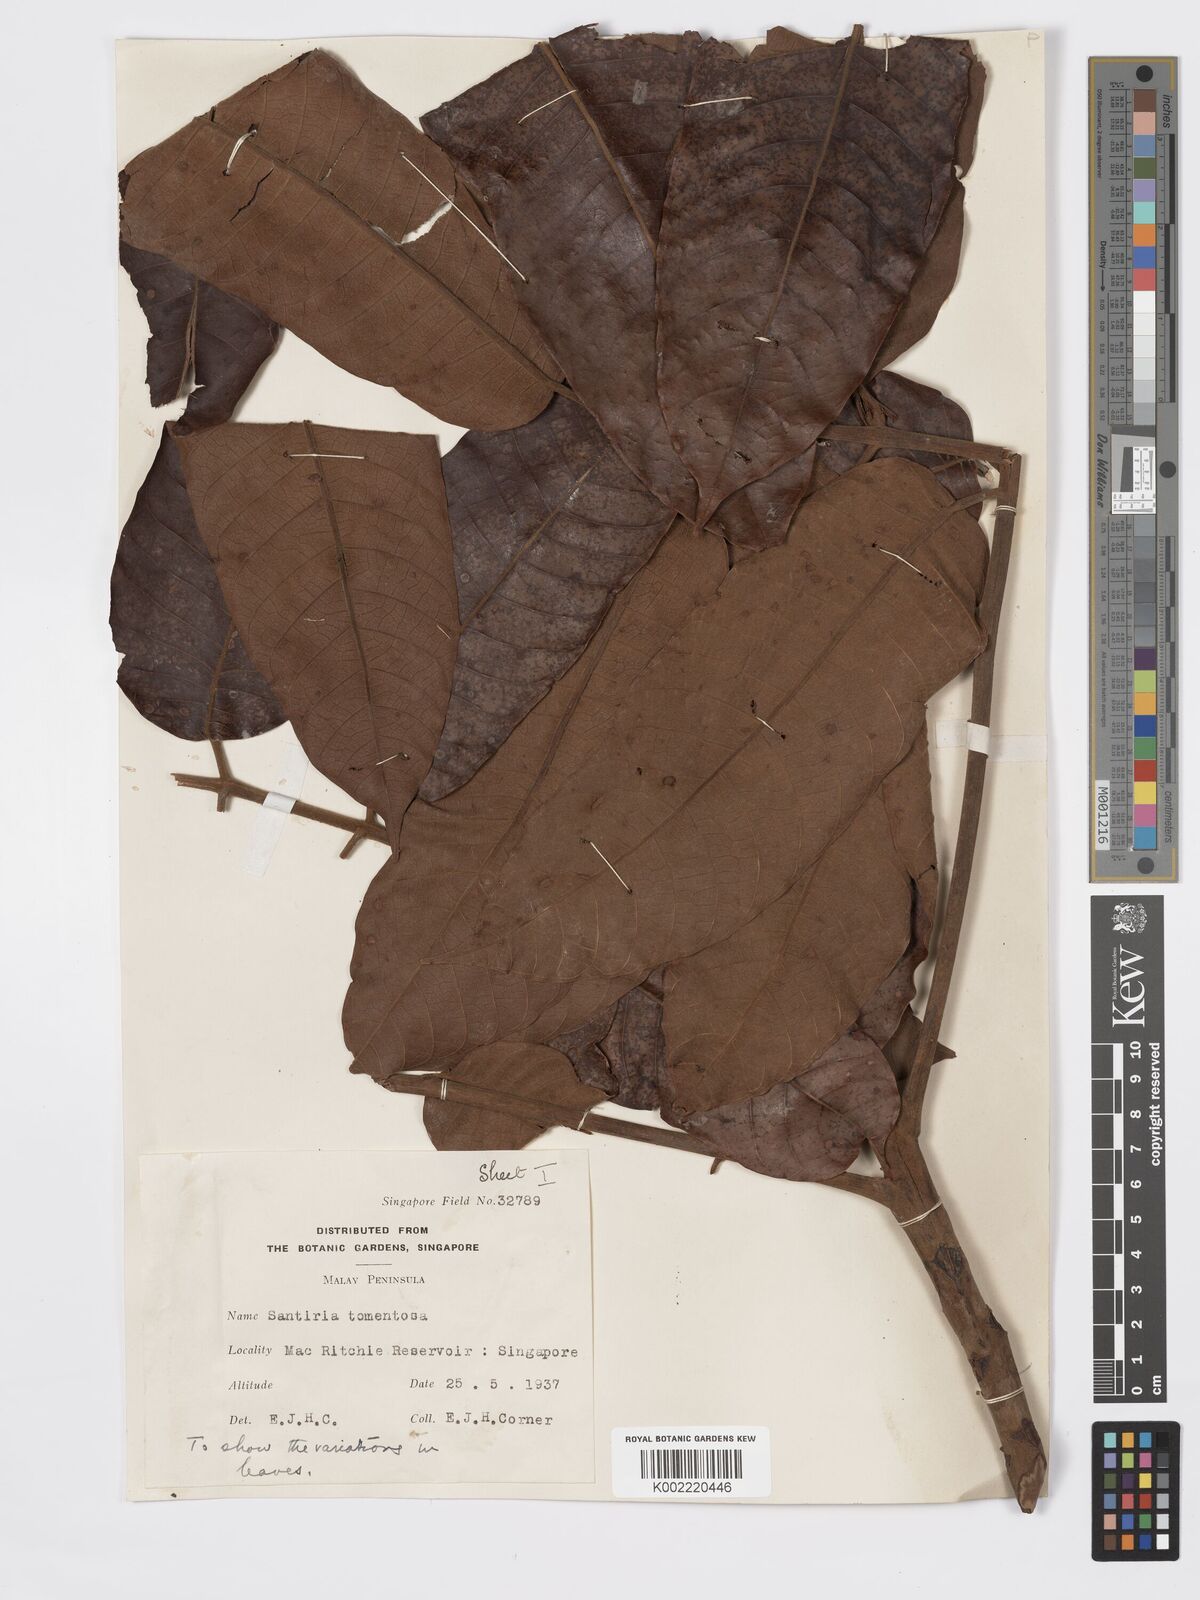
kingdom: Plantae
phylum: Tracheophyta
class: Magnoliopsida
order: Sapindales
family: Burseraceae
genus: Santiria
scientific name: Santiria tomentosa
